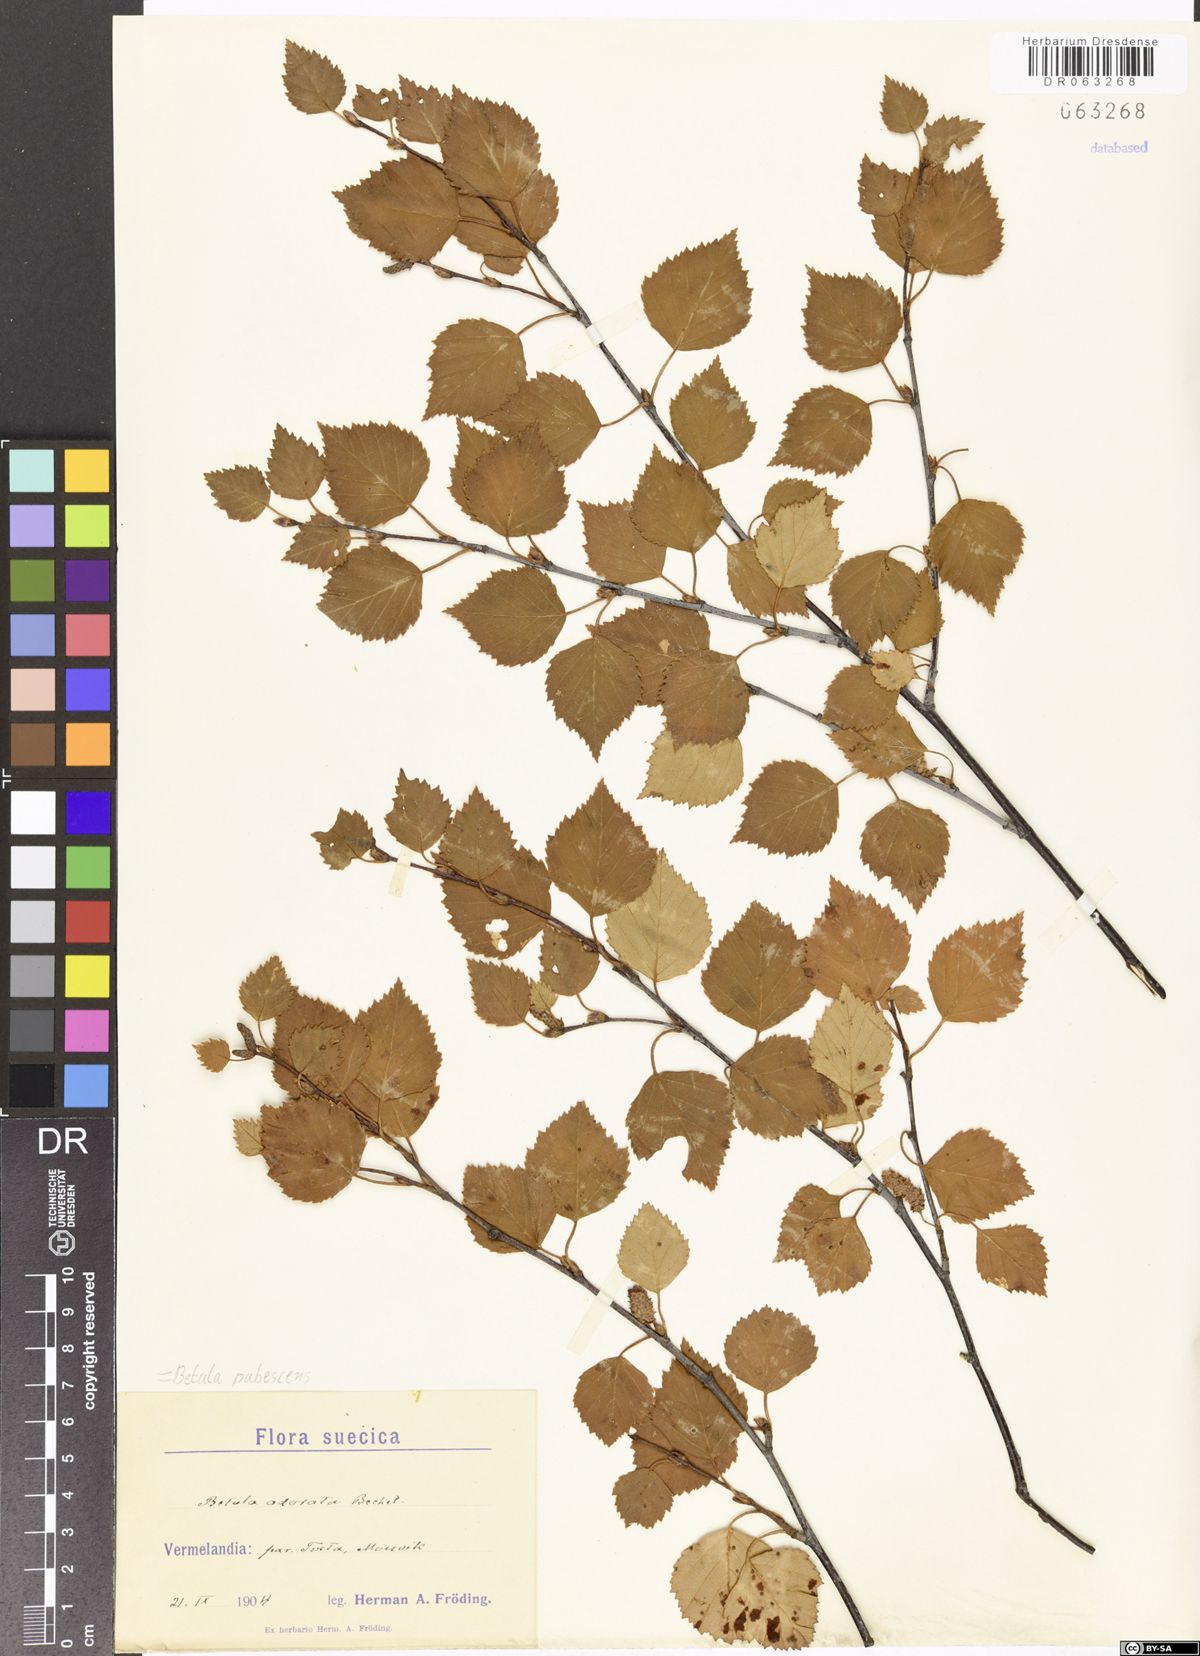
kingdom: Plantae
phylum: Tracheophyta
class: Magnoliopsida
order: Fagales
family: Betulaceae
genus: Betula
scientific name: Betula pubescens
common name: Downy birch
